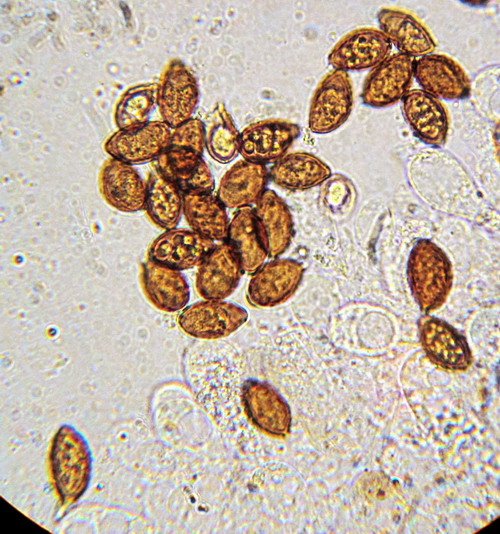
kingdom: Fungi
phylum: Basidiomycota
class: Agaricomycetes
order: Agaricales
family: Bolbitiaceae
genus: Panaeolina
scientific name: Panaeolina foenisecii
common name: høslætsvamp
